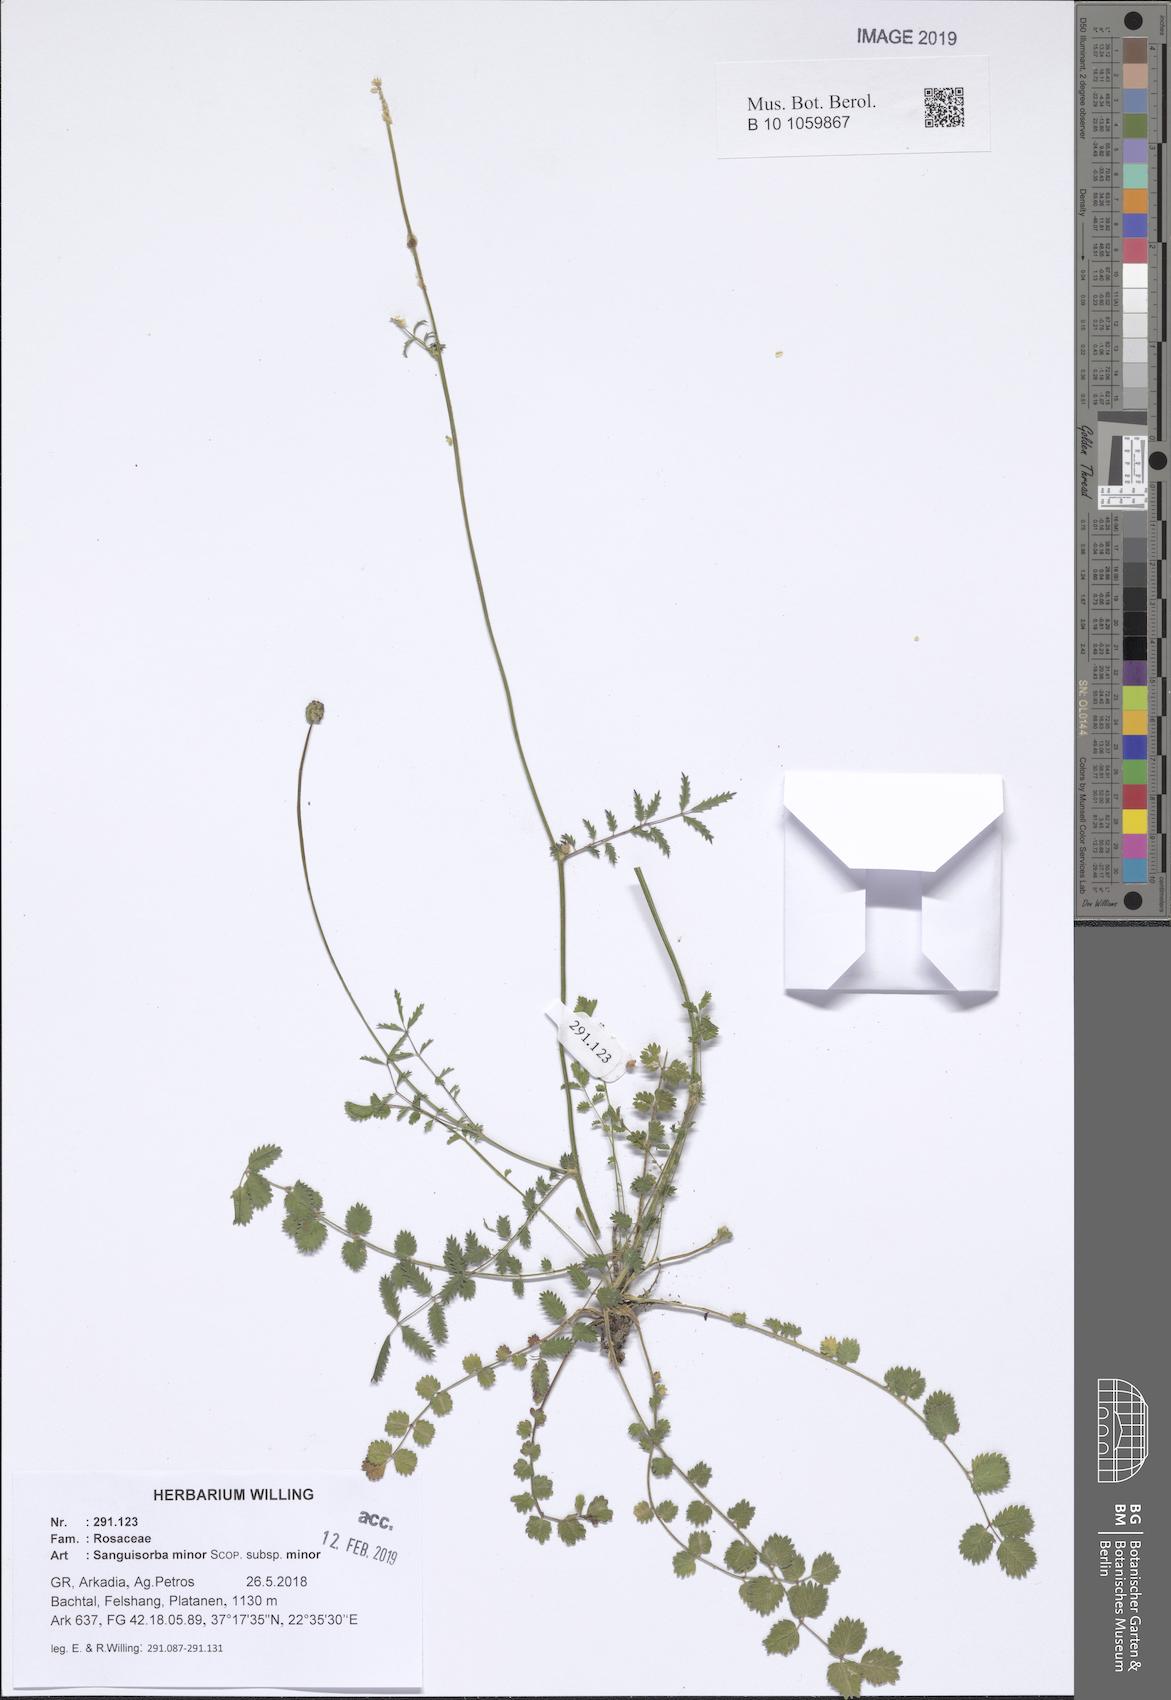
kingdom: Plantae
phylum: Tracheophyta
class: Magnoliopsida
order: Rosales
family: Rosaceae
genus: Poterium
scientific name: Poterium sanguisorba
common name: Salad burnet
